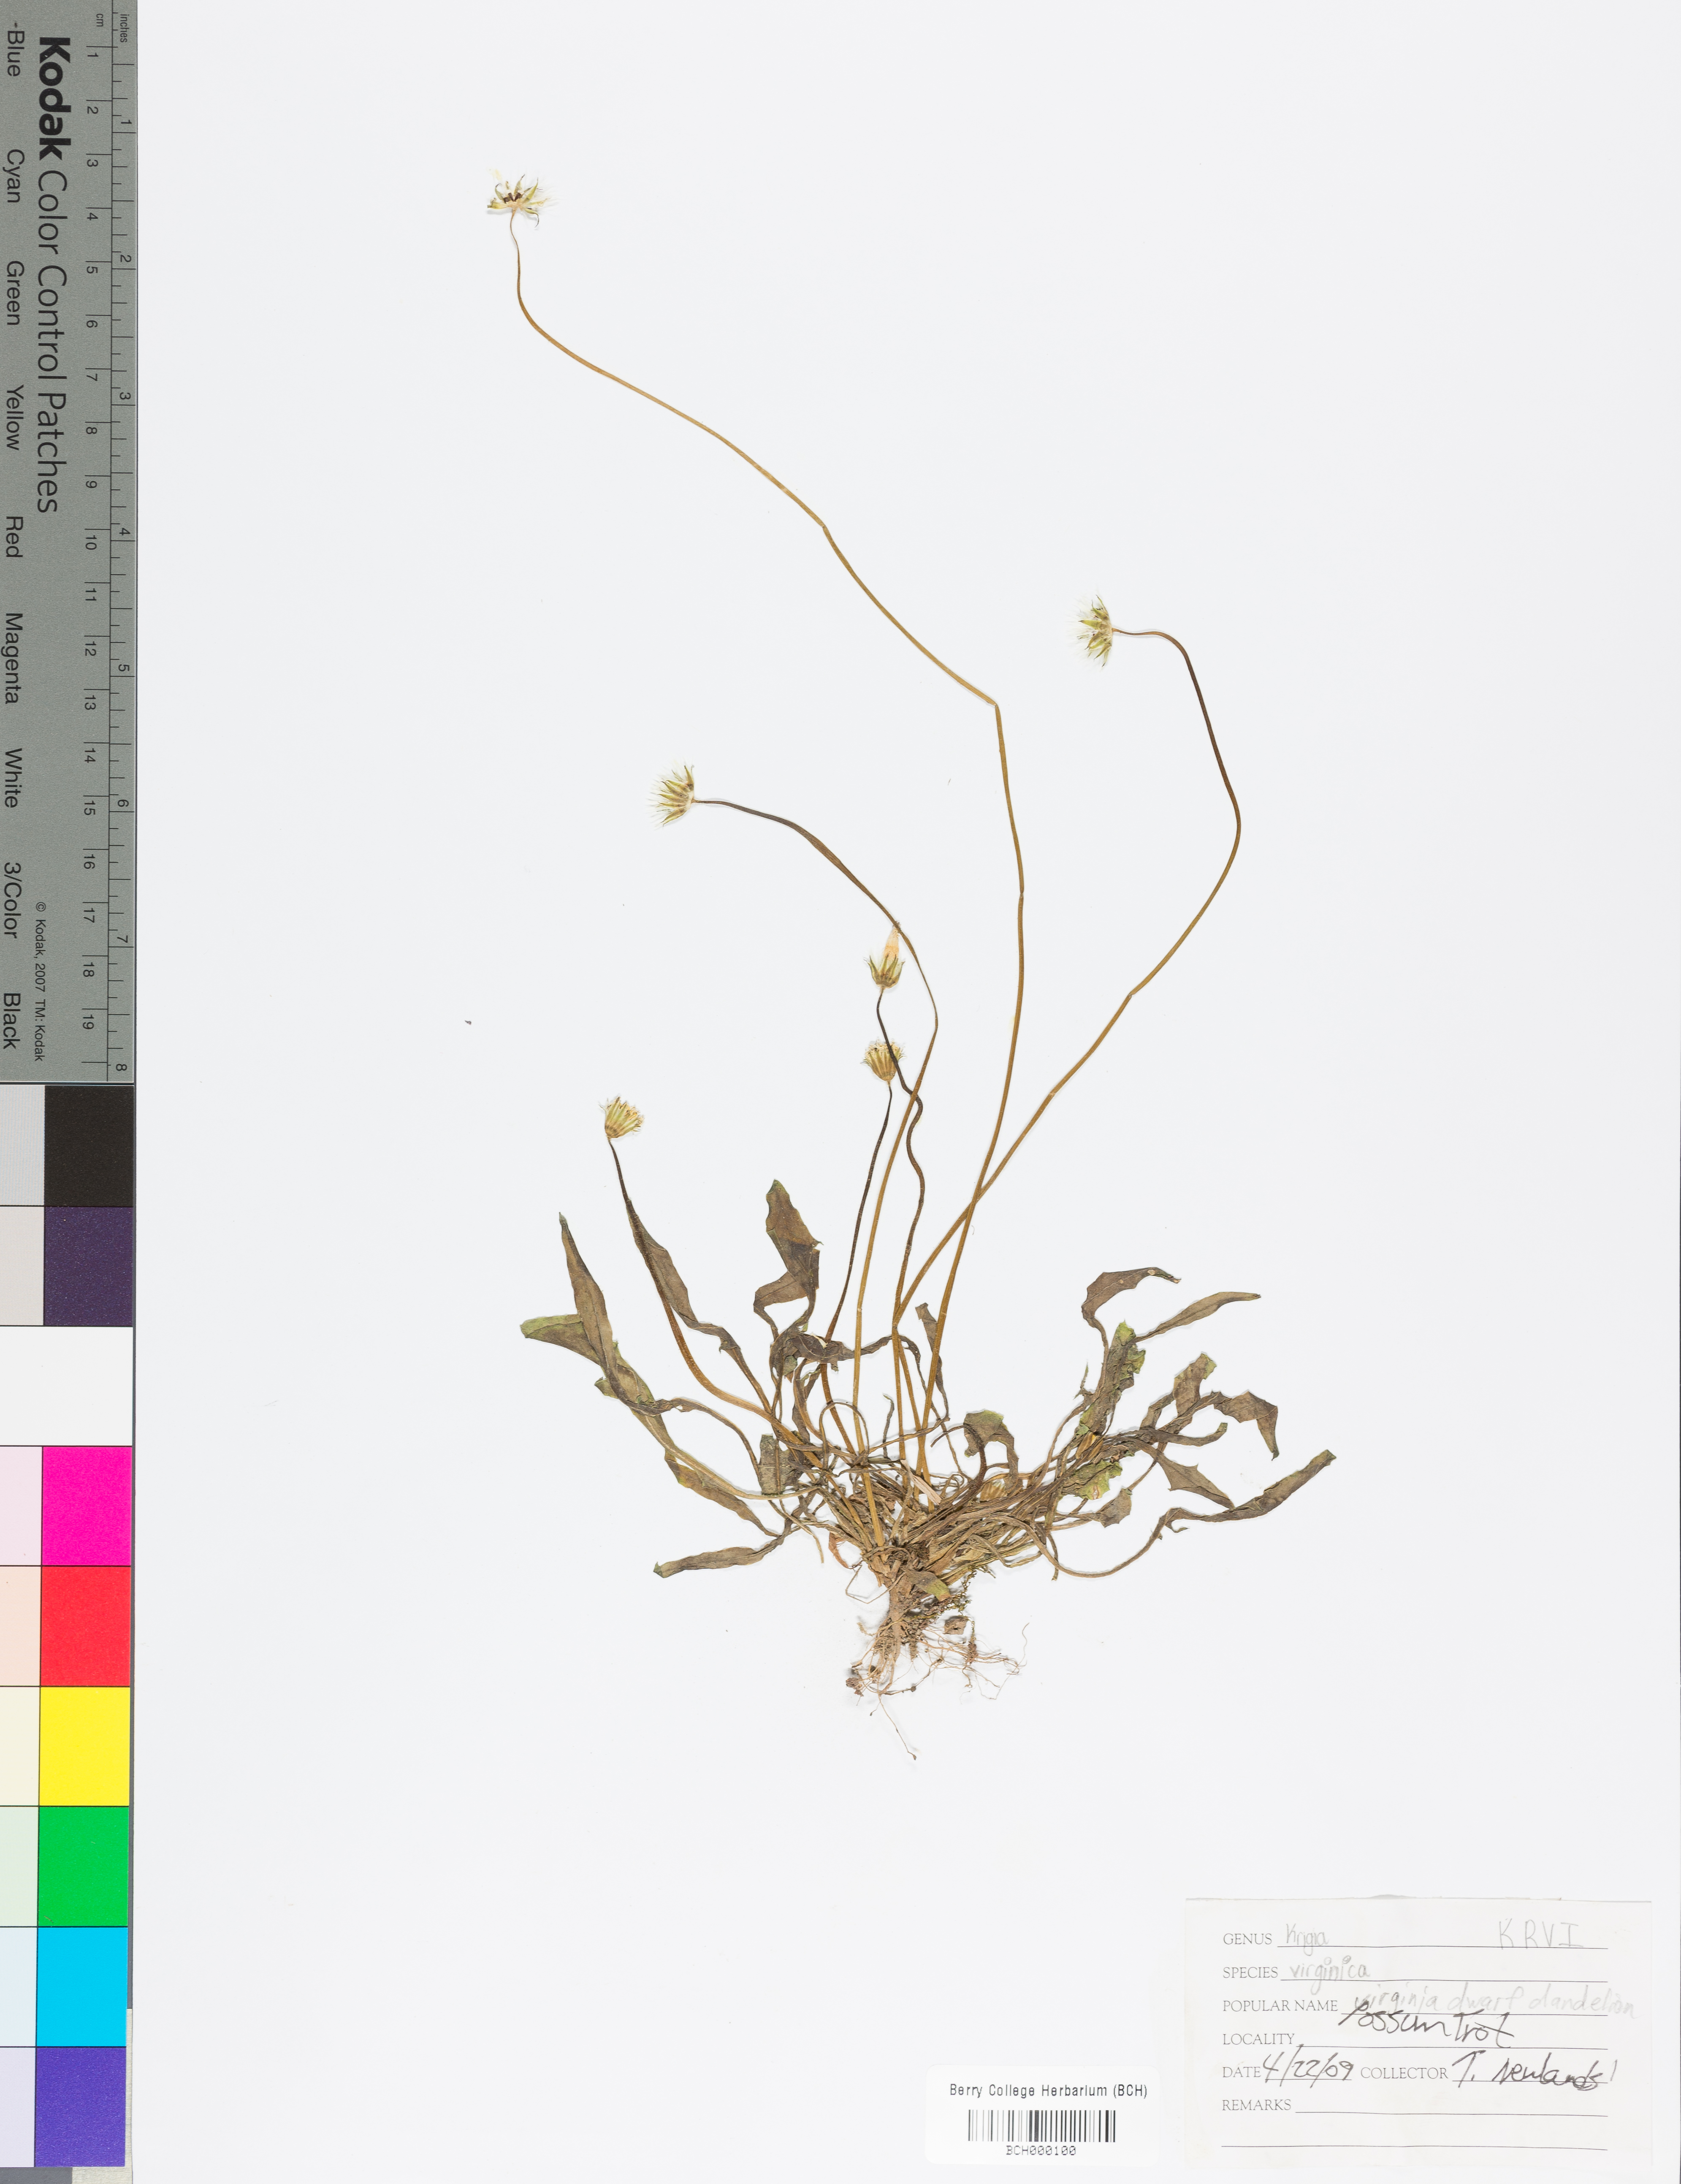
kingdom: Plantae
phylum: Tracheophyta
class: Magnoliopsida
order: Asterales
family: Asteraceae
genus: Krigia
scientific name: Krigia virginica
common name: Virginia dwarf-dandelion
